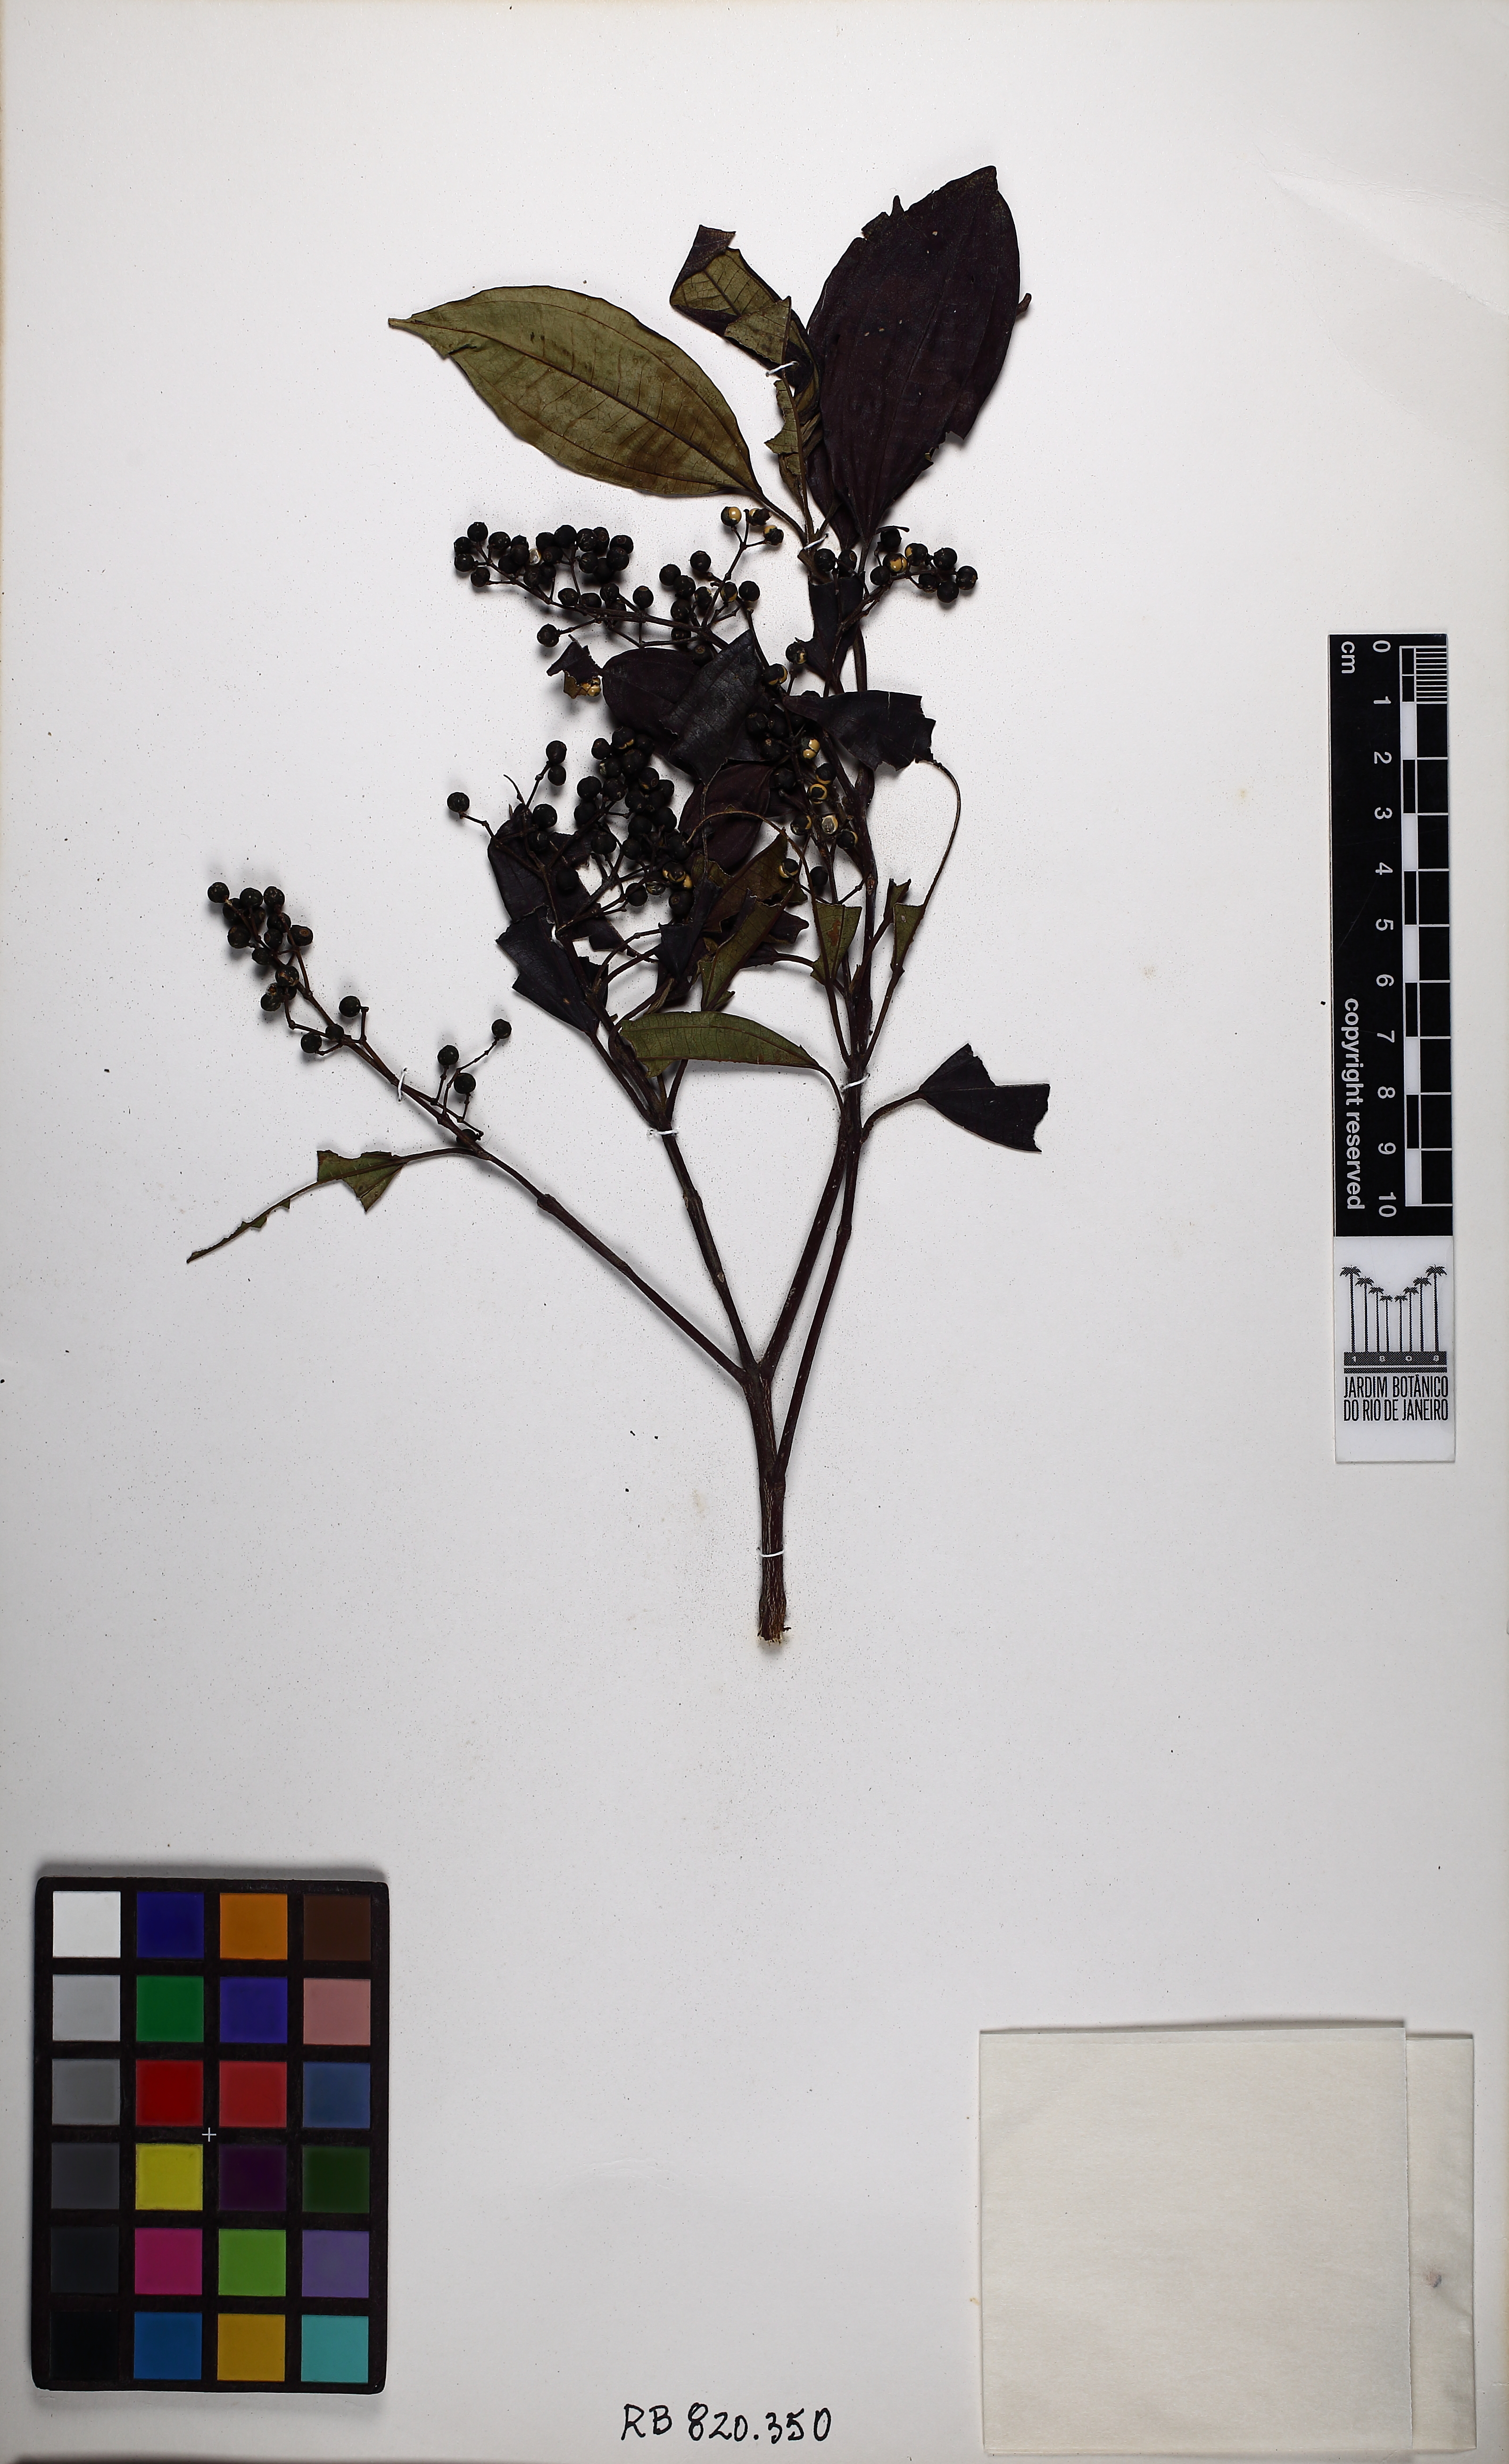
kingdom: Plantae
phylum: Tracheophyta
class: Magnoliopsida
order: Myrtales
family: Melastomataceae
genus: Miconia
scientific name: Miconia molesta
